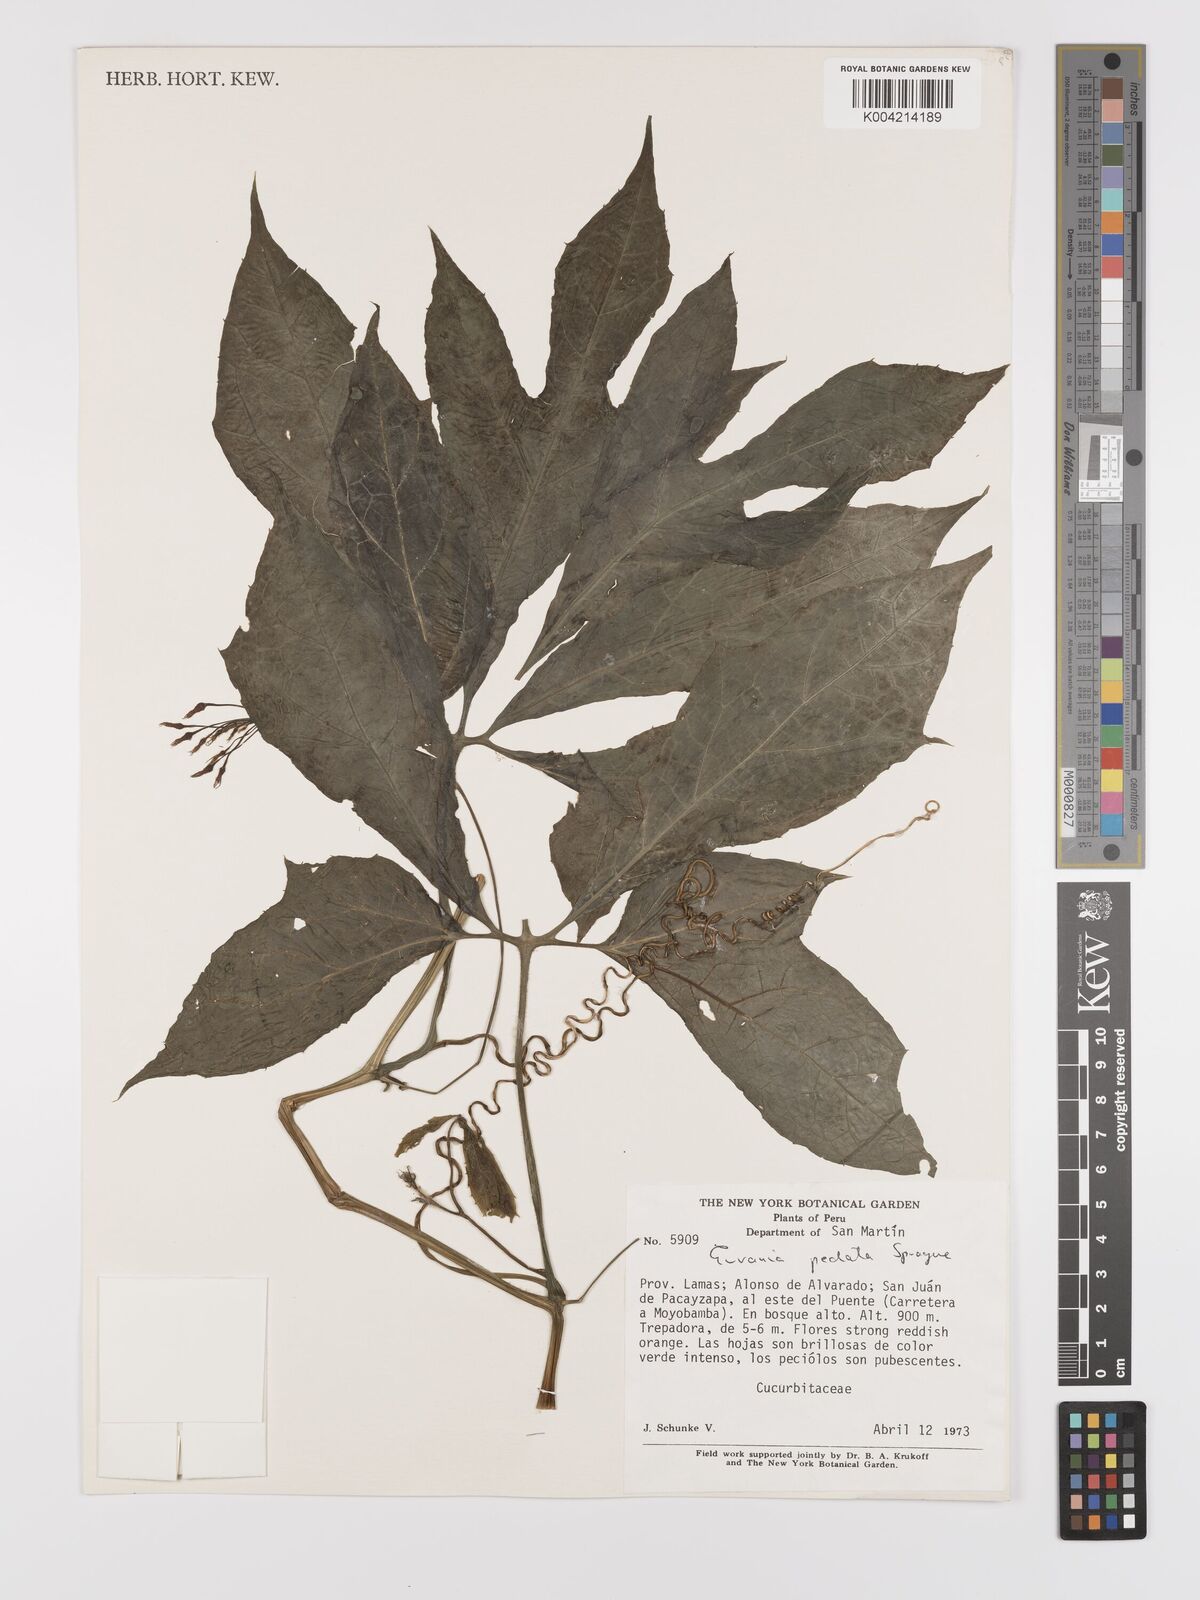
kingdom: Plantae
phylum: Tracheophyta
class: Magnoliopsida
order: Cucurbitales
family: Cucurbitaceae
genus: Gurania
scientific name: Gurania pedata
